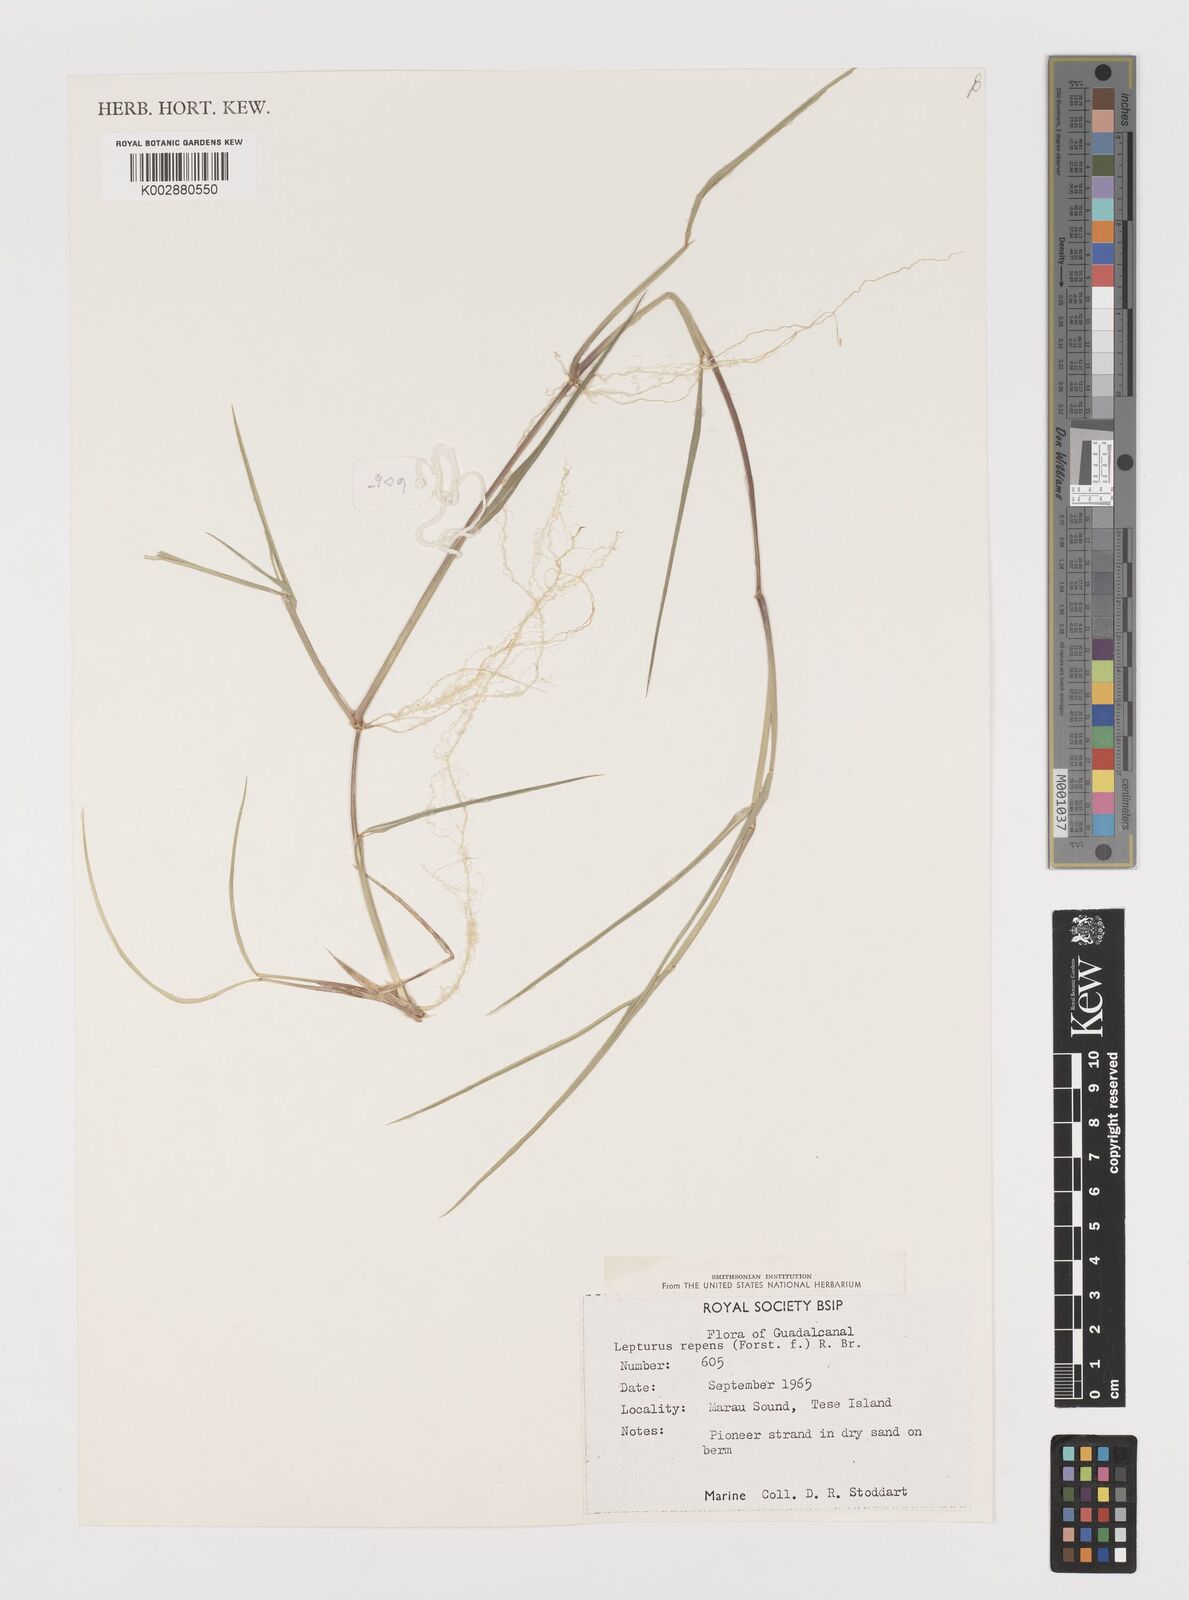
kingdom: Plantae
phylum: Tracheophyta
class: Liliopsida
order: Poales
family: Poaceae
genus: Lepturus
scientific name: Lepturus repens
